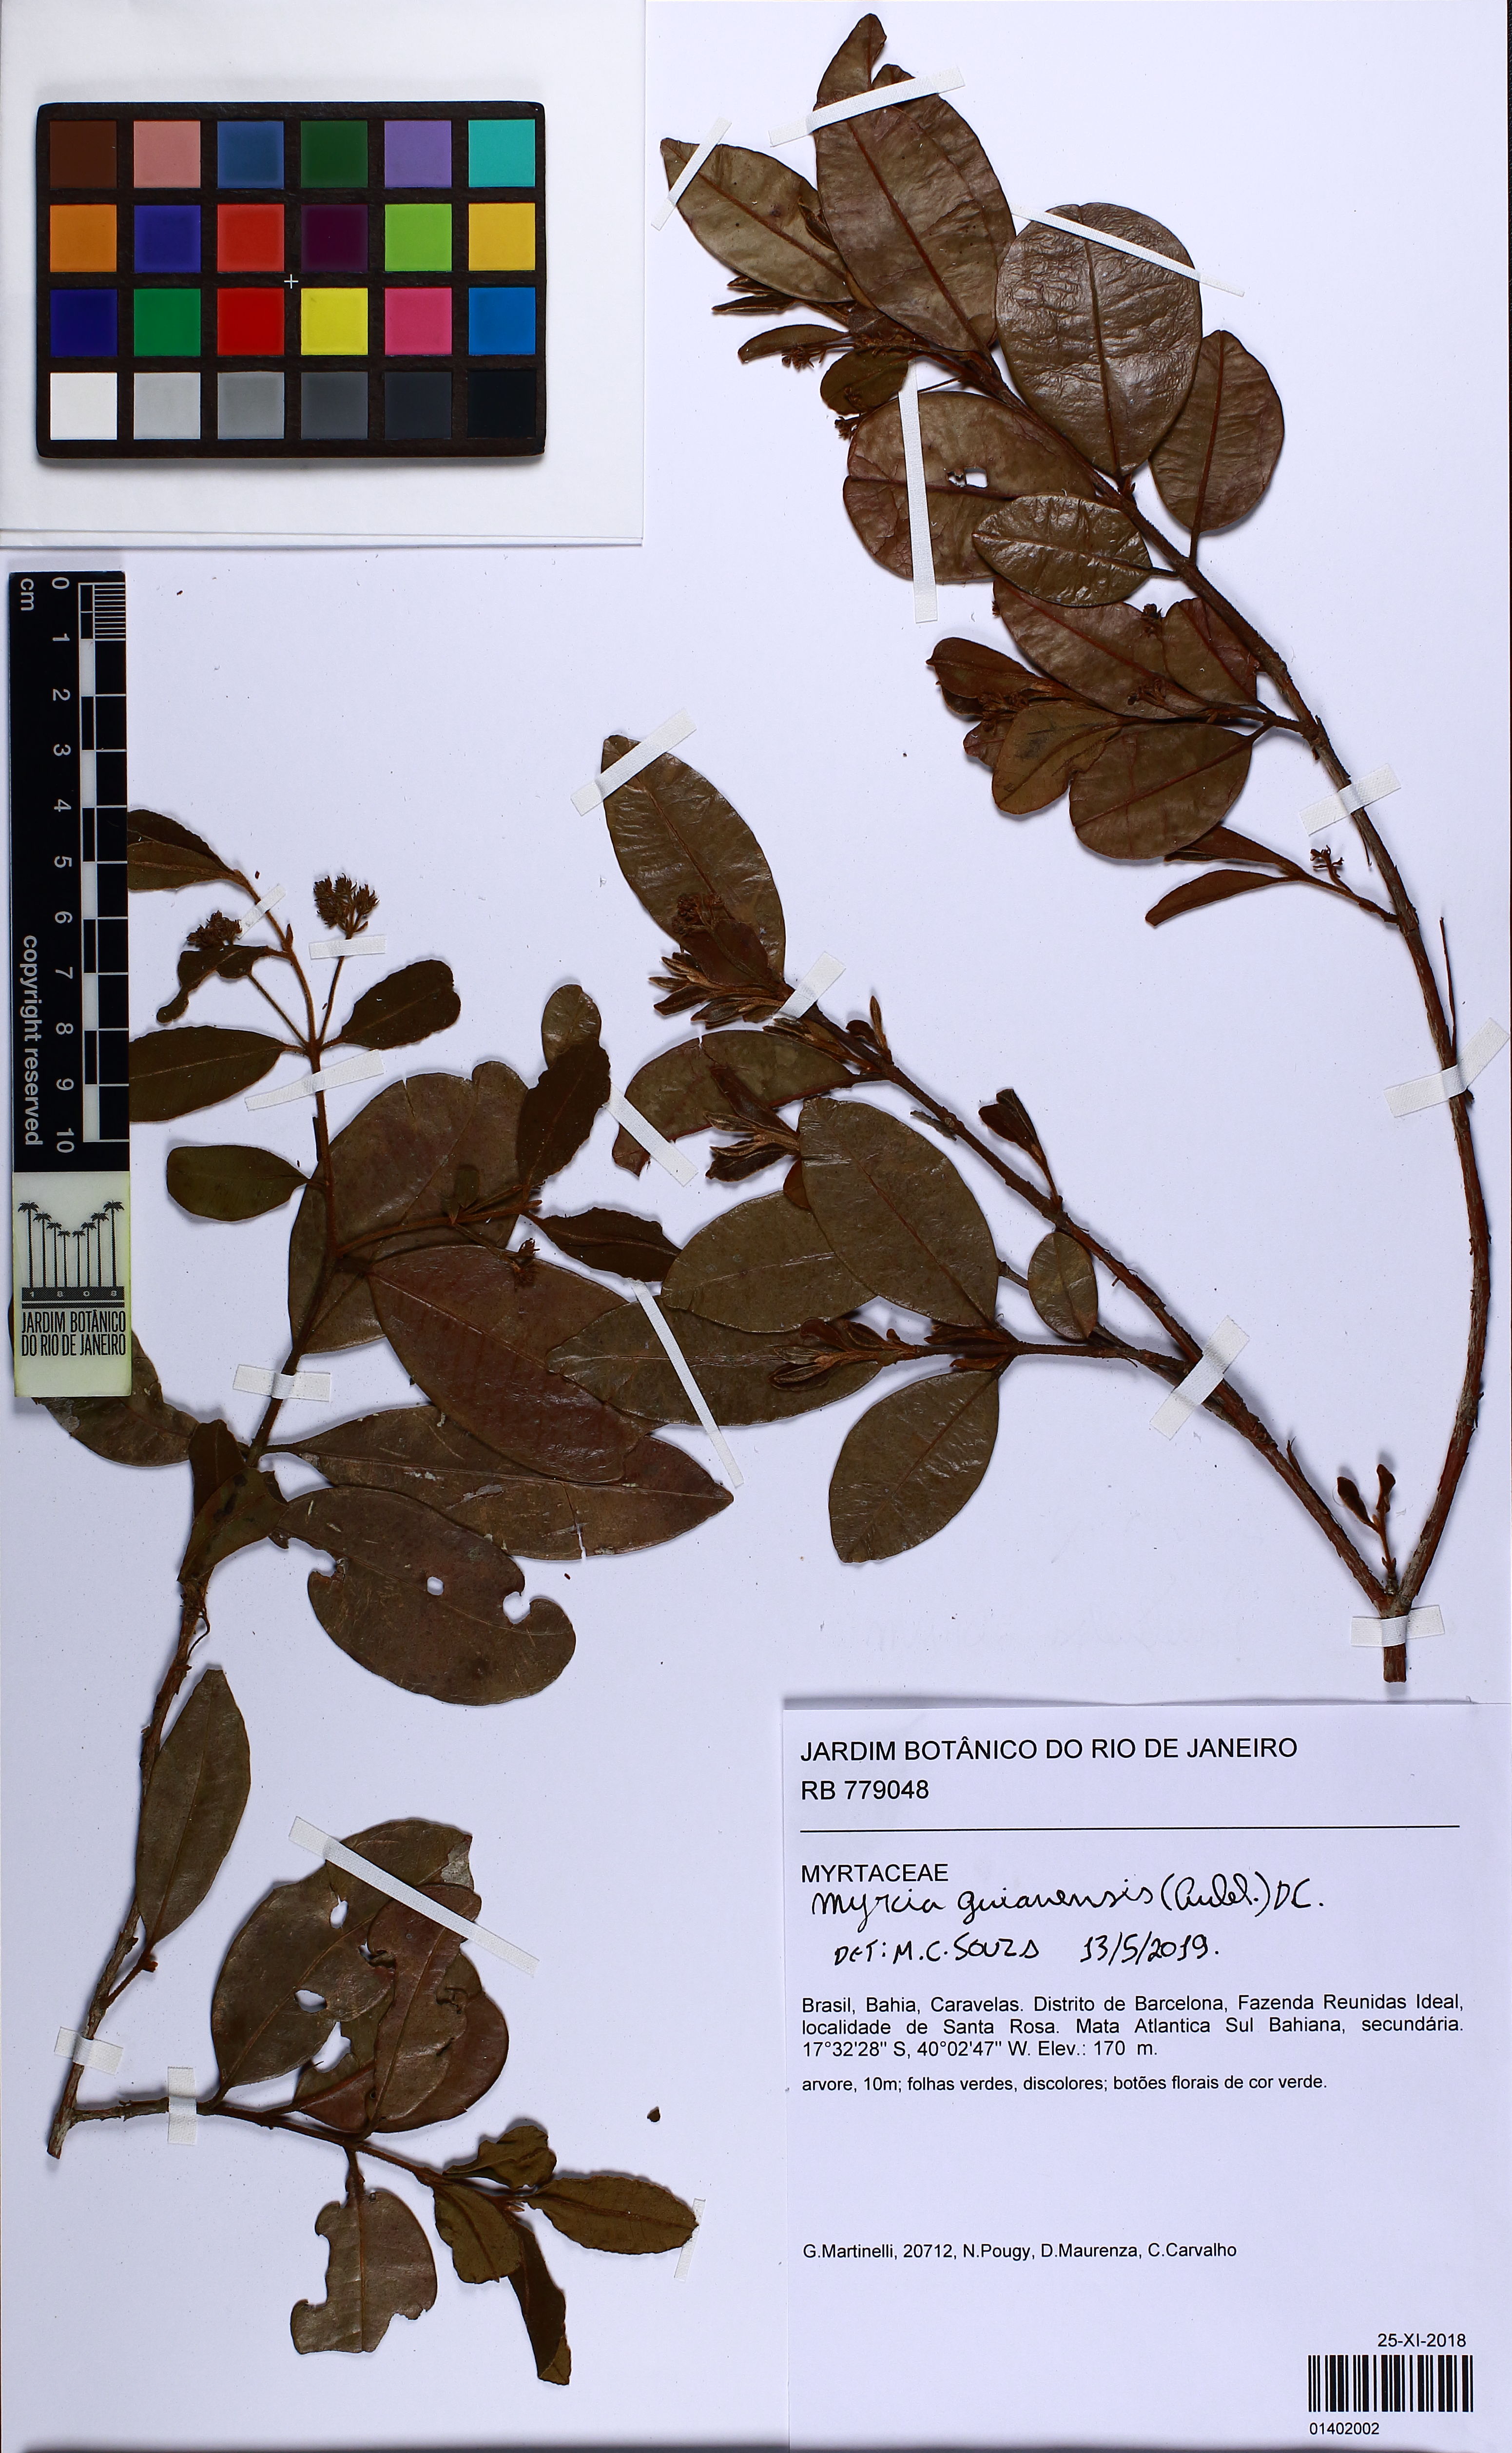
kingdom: Plantae
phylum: Tracheophyta
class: Magnoliopsida
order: Myrtales
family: Myrtaceae
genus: Myrcia
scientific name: Myrcia guianensis
